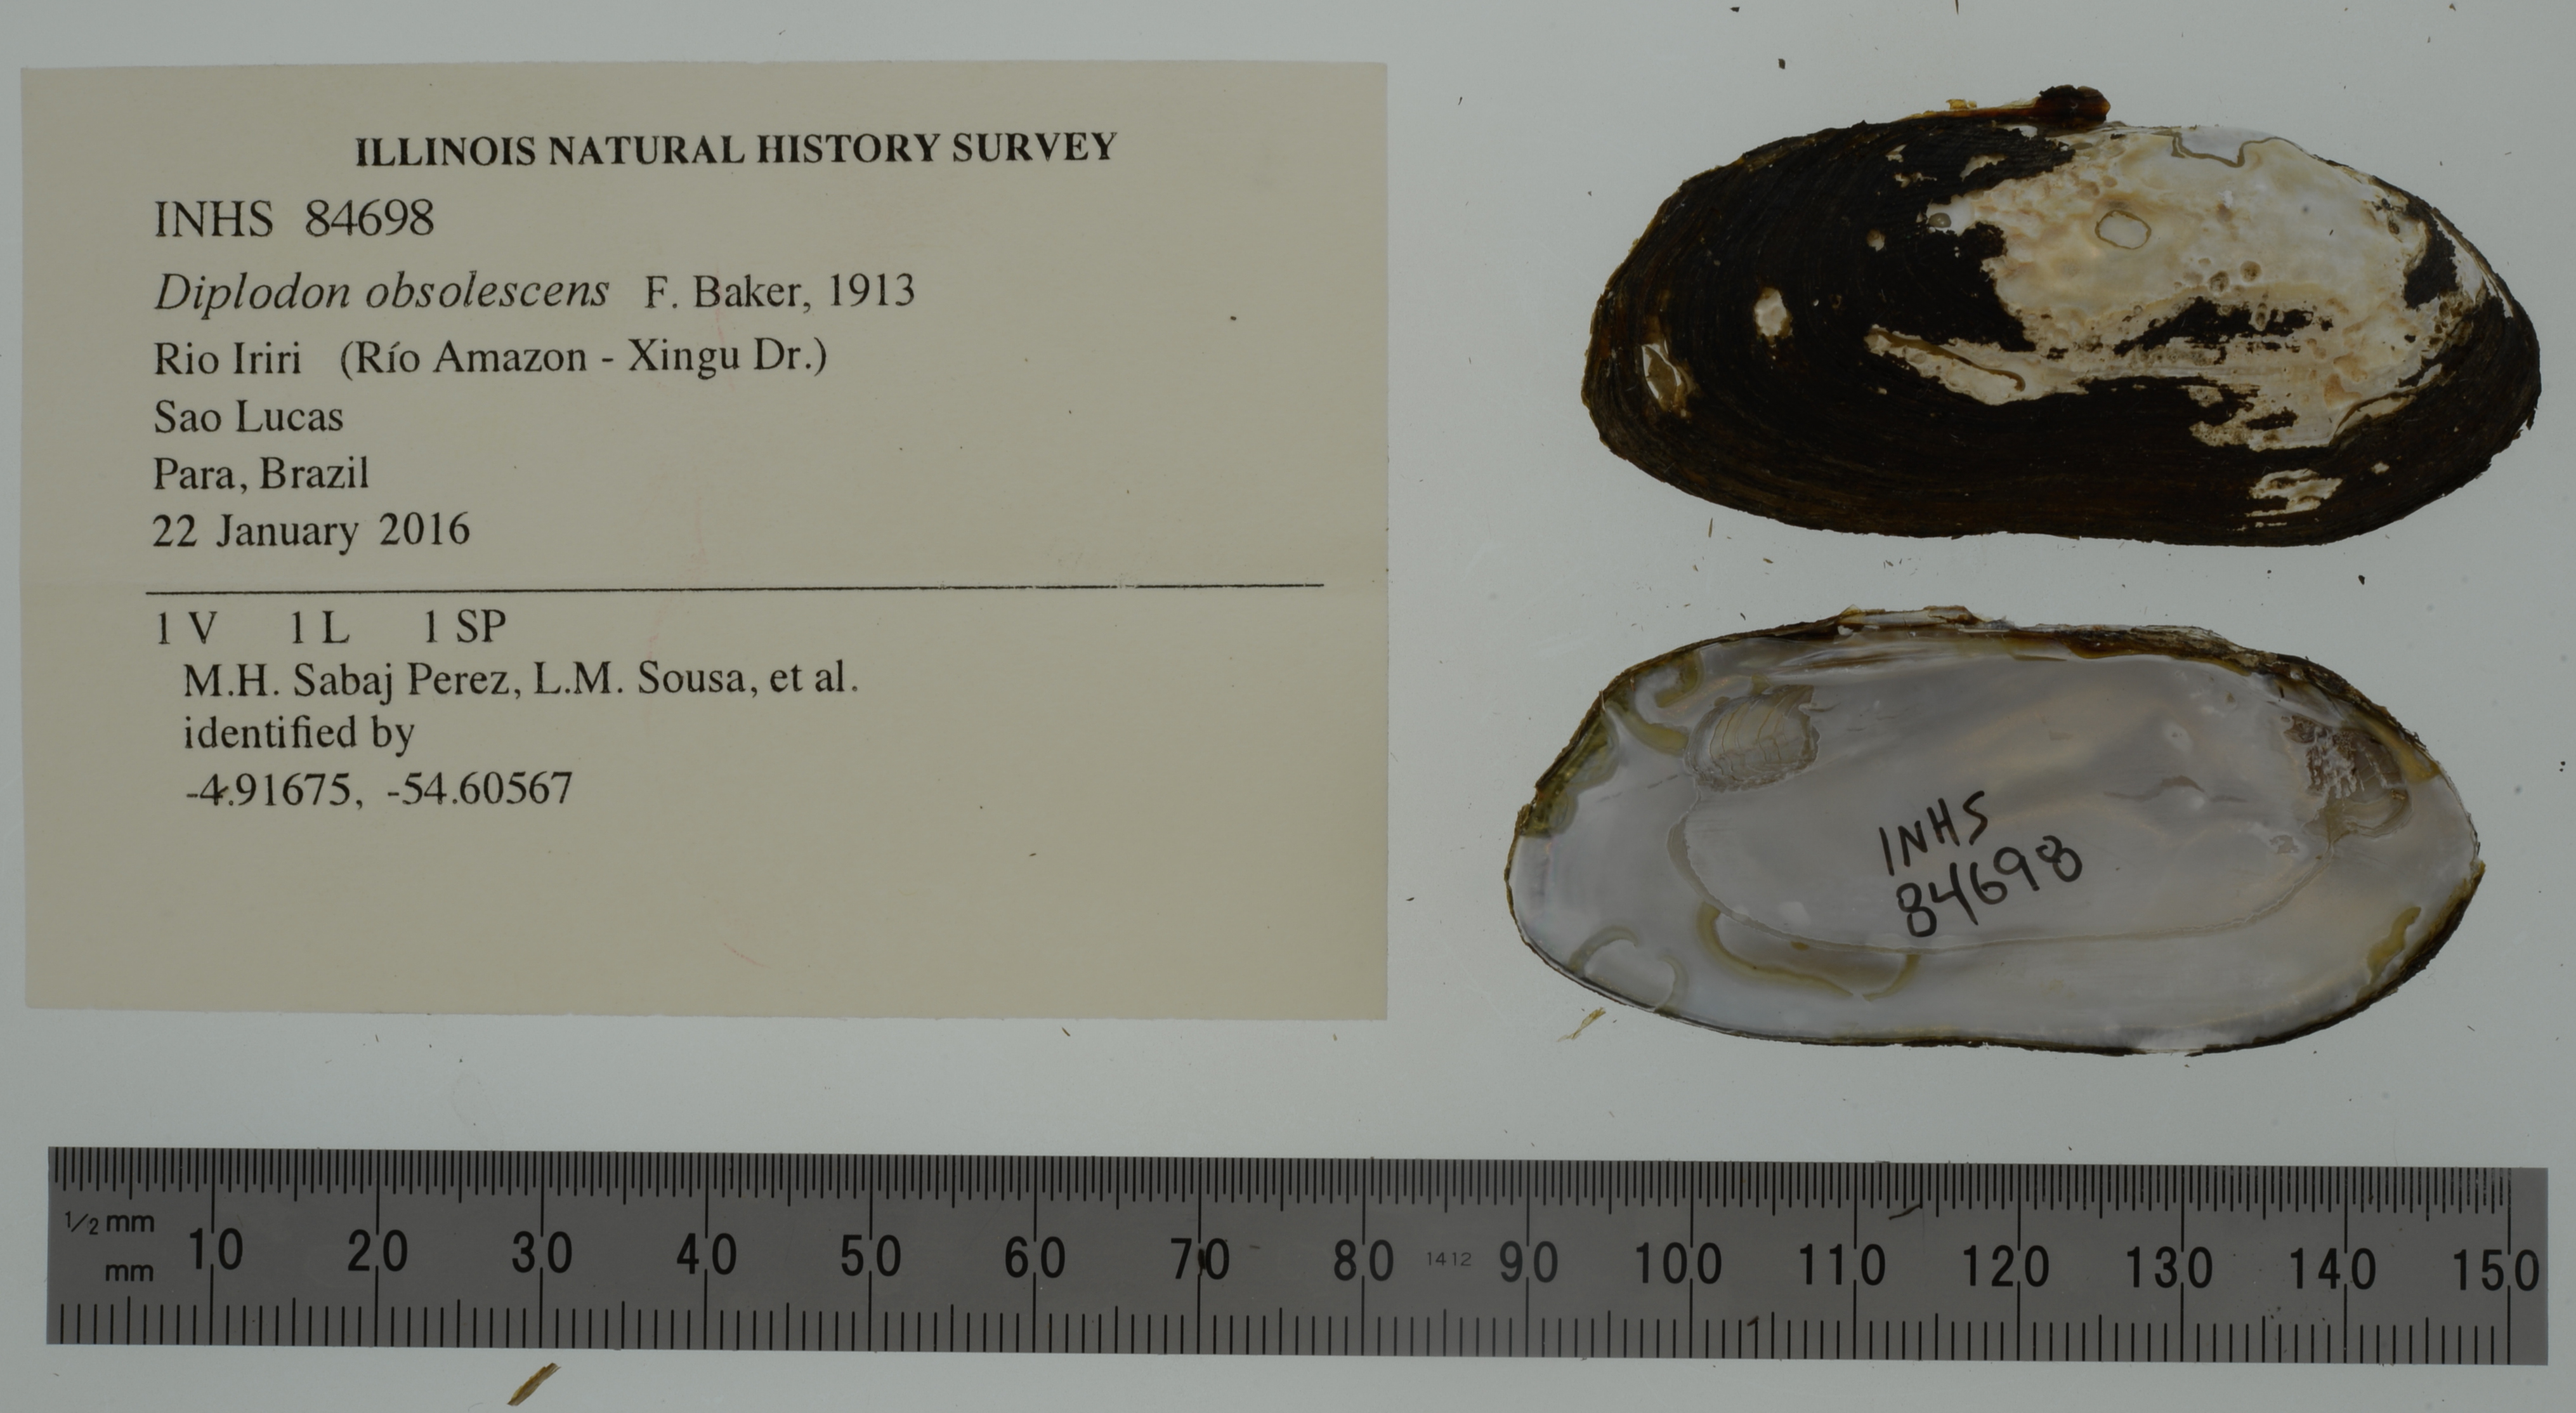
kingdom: Animalia
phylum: Mollusca
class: Bivalvia
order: Unionida
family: Hyriidae
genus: Diplodon
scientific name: Diplodon obsolescens
